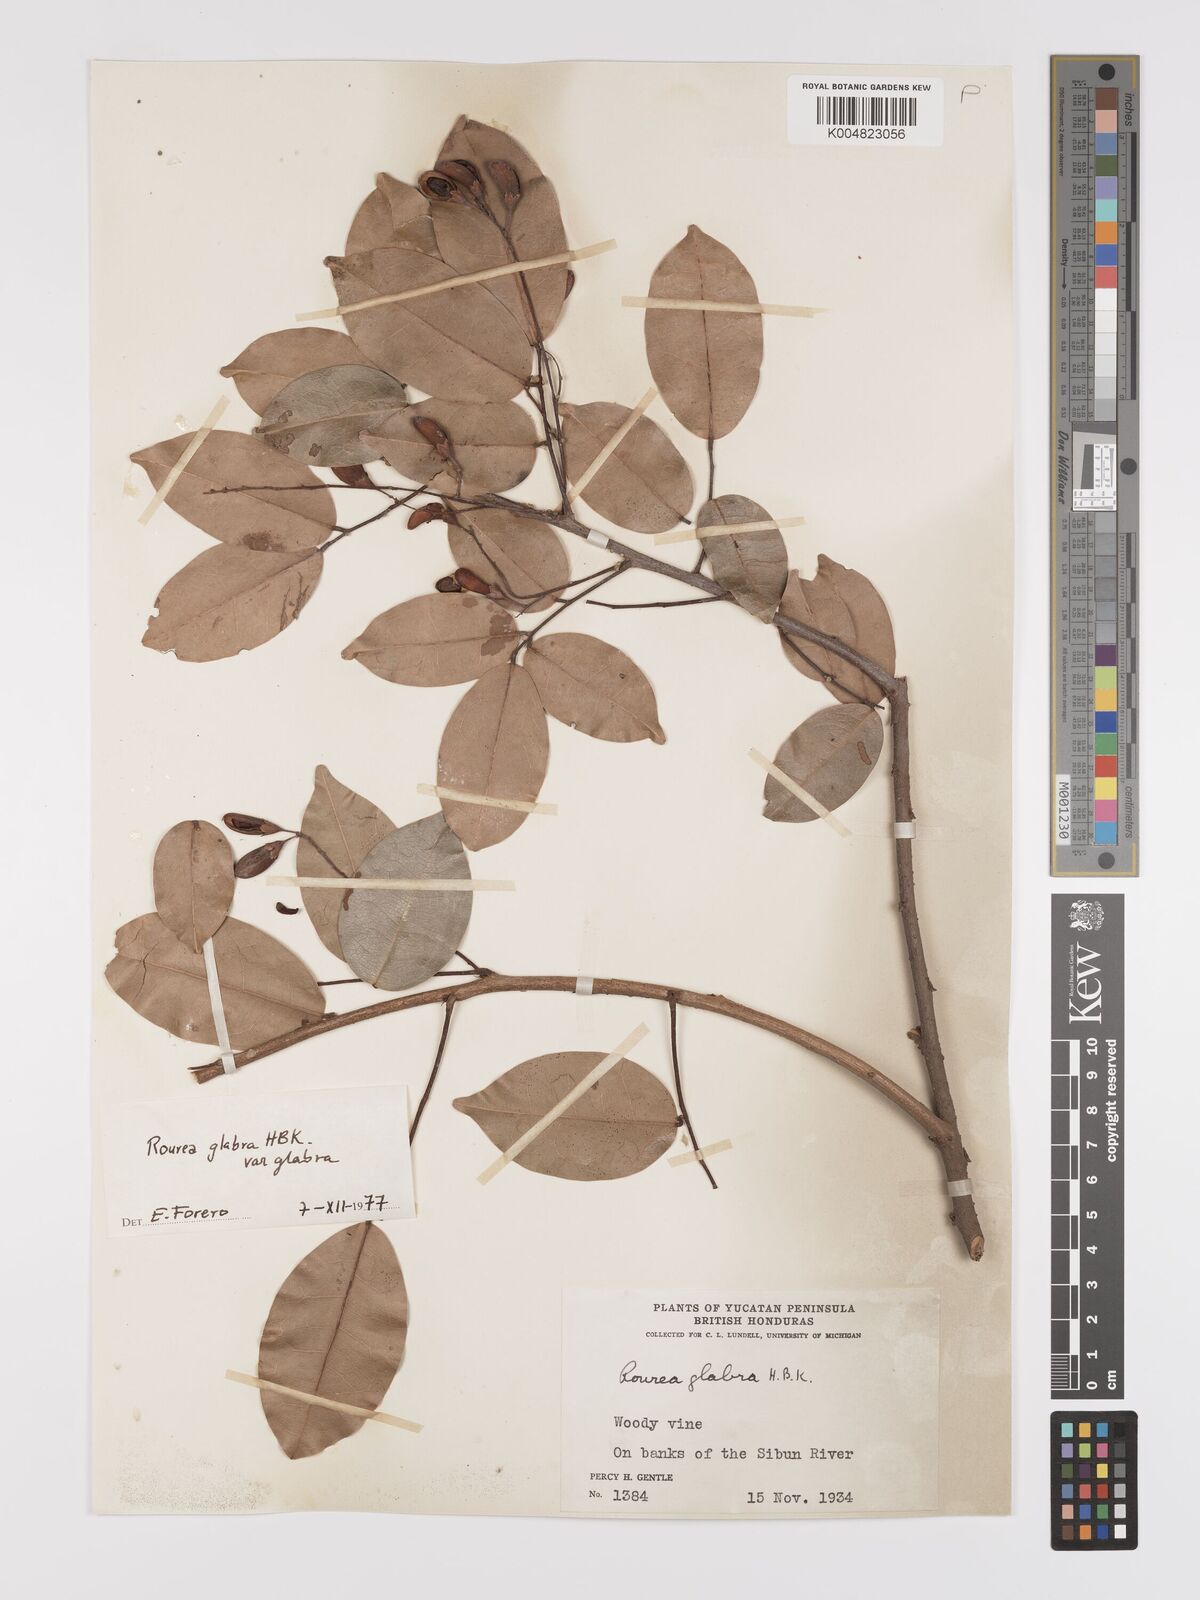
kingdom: Plantae
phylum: Tracheophyta
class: Magnoliopsida
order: Oxalidales
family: Connaraceae
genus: Rourea
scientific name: Rourea glabra
